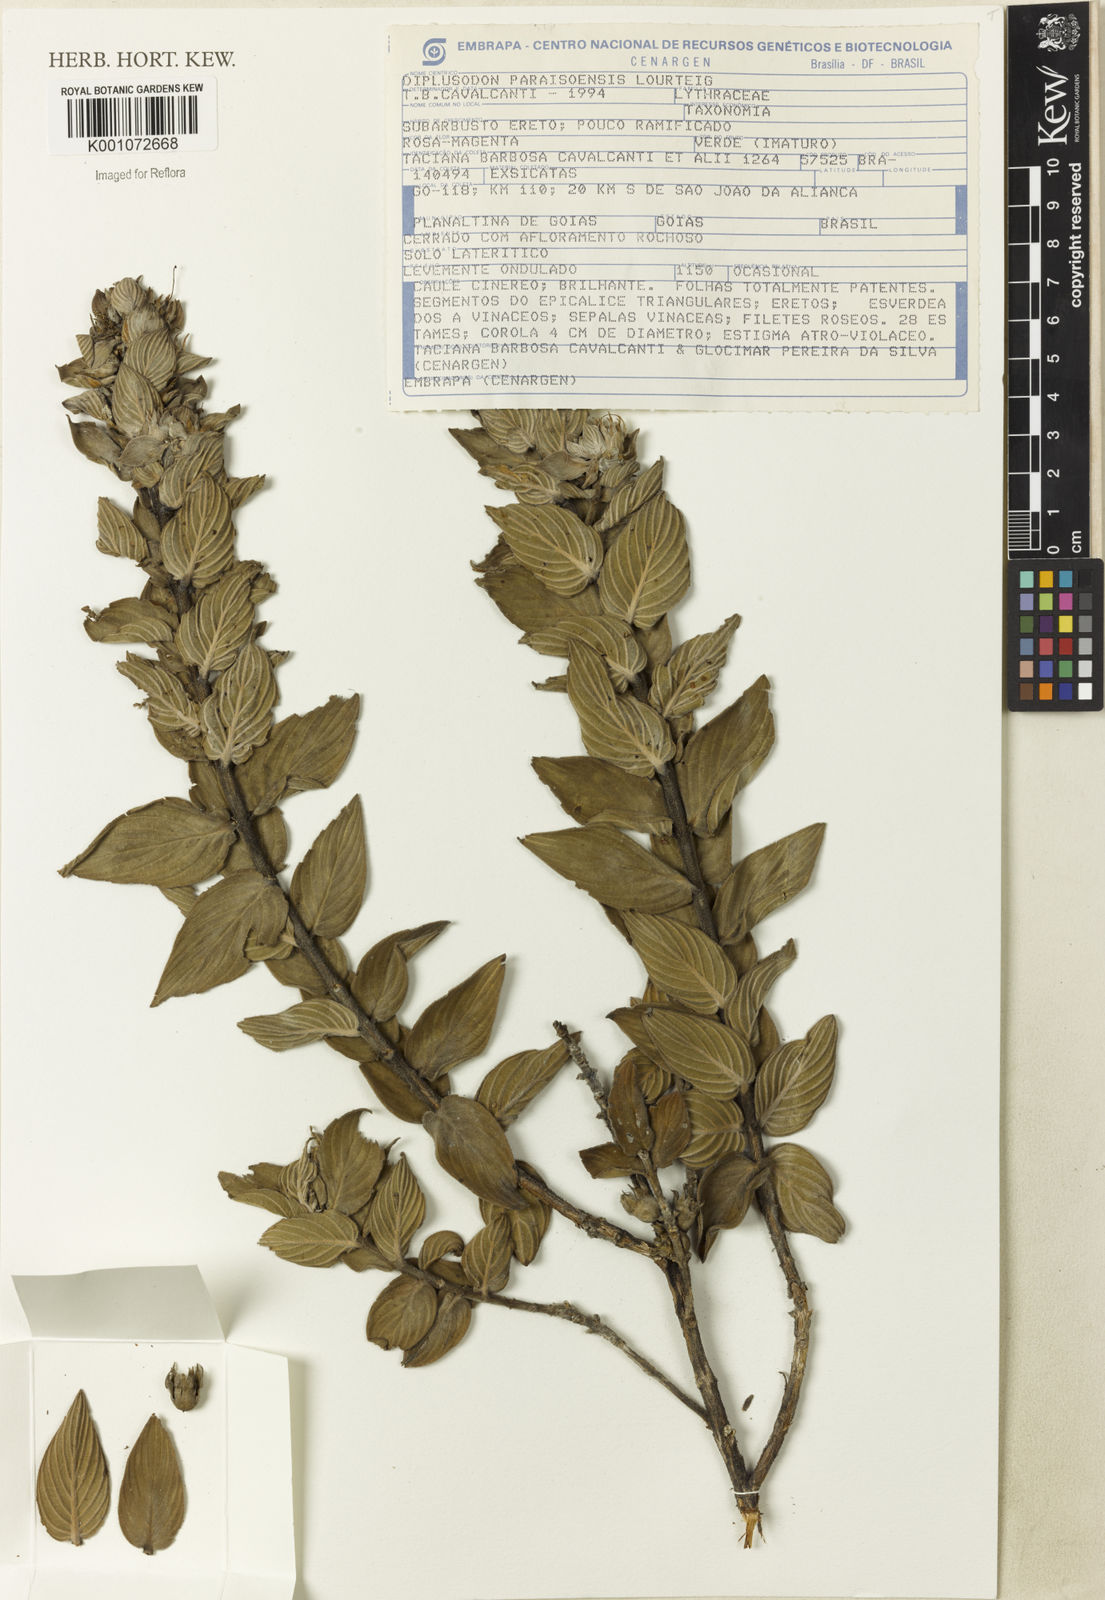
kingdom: Plantae
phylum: Tracheophyta
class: Magnoliopsida
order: Myrtales
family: Lythraceae
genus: Diplusodon
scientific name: Diplusodon paraisoensis
